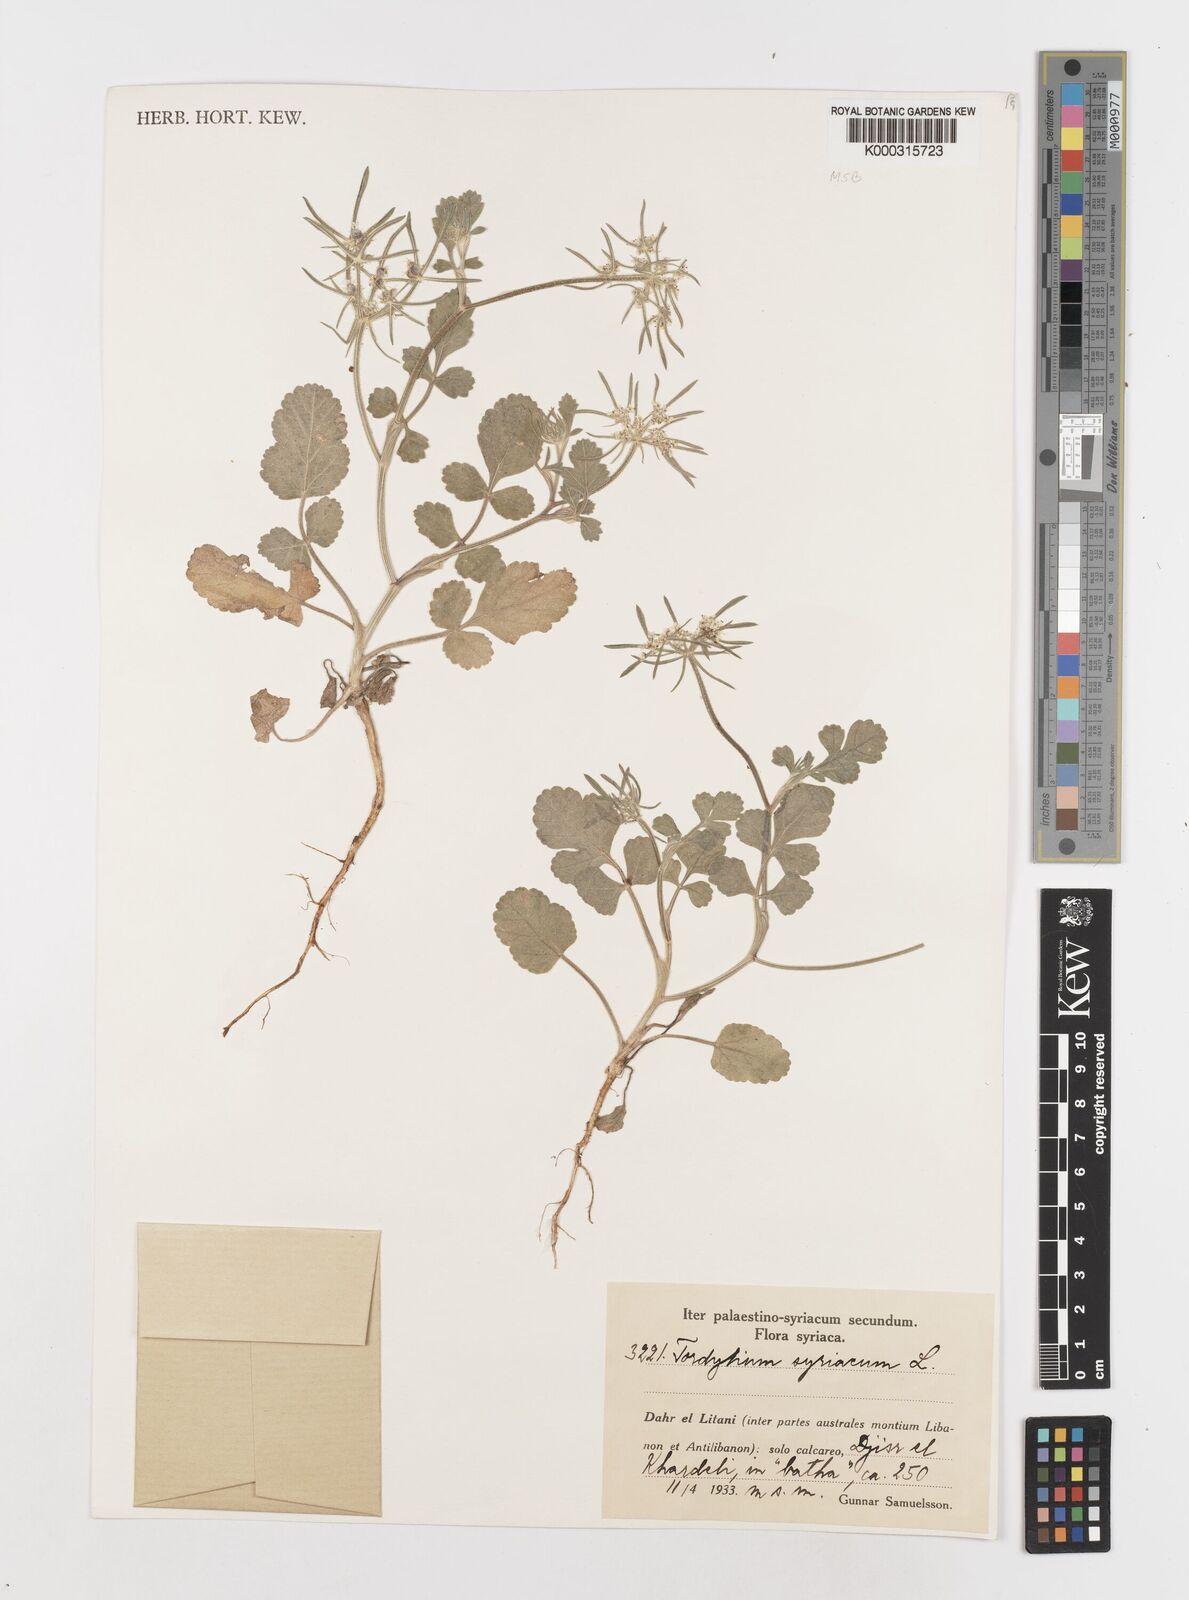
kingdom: Plantae
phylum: Tracheophyta
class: Magnoliopsida
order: Apiales
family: Apiaceae
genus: Tordylium
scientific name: Tordylium syriacum
